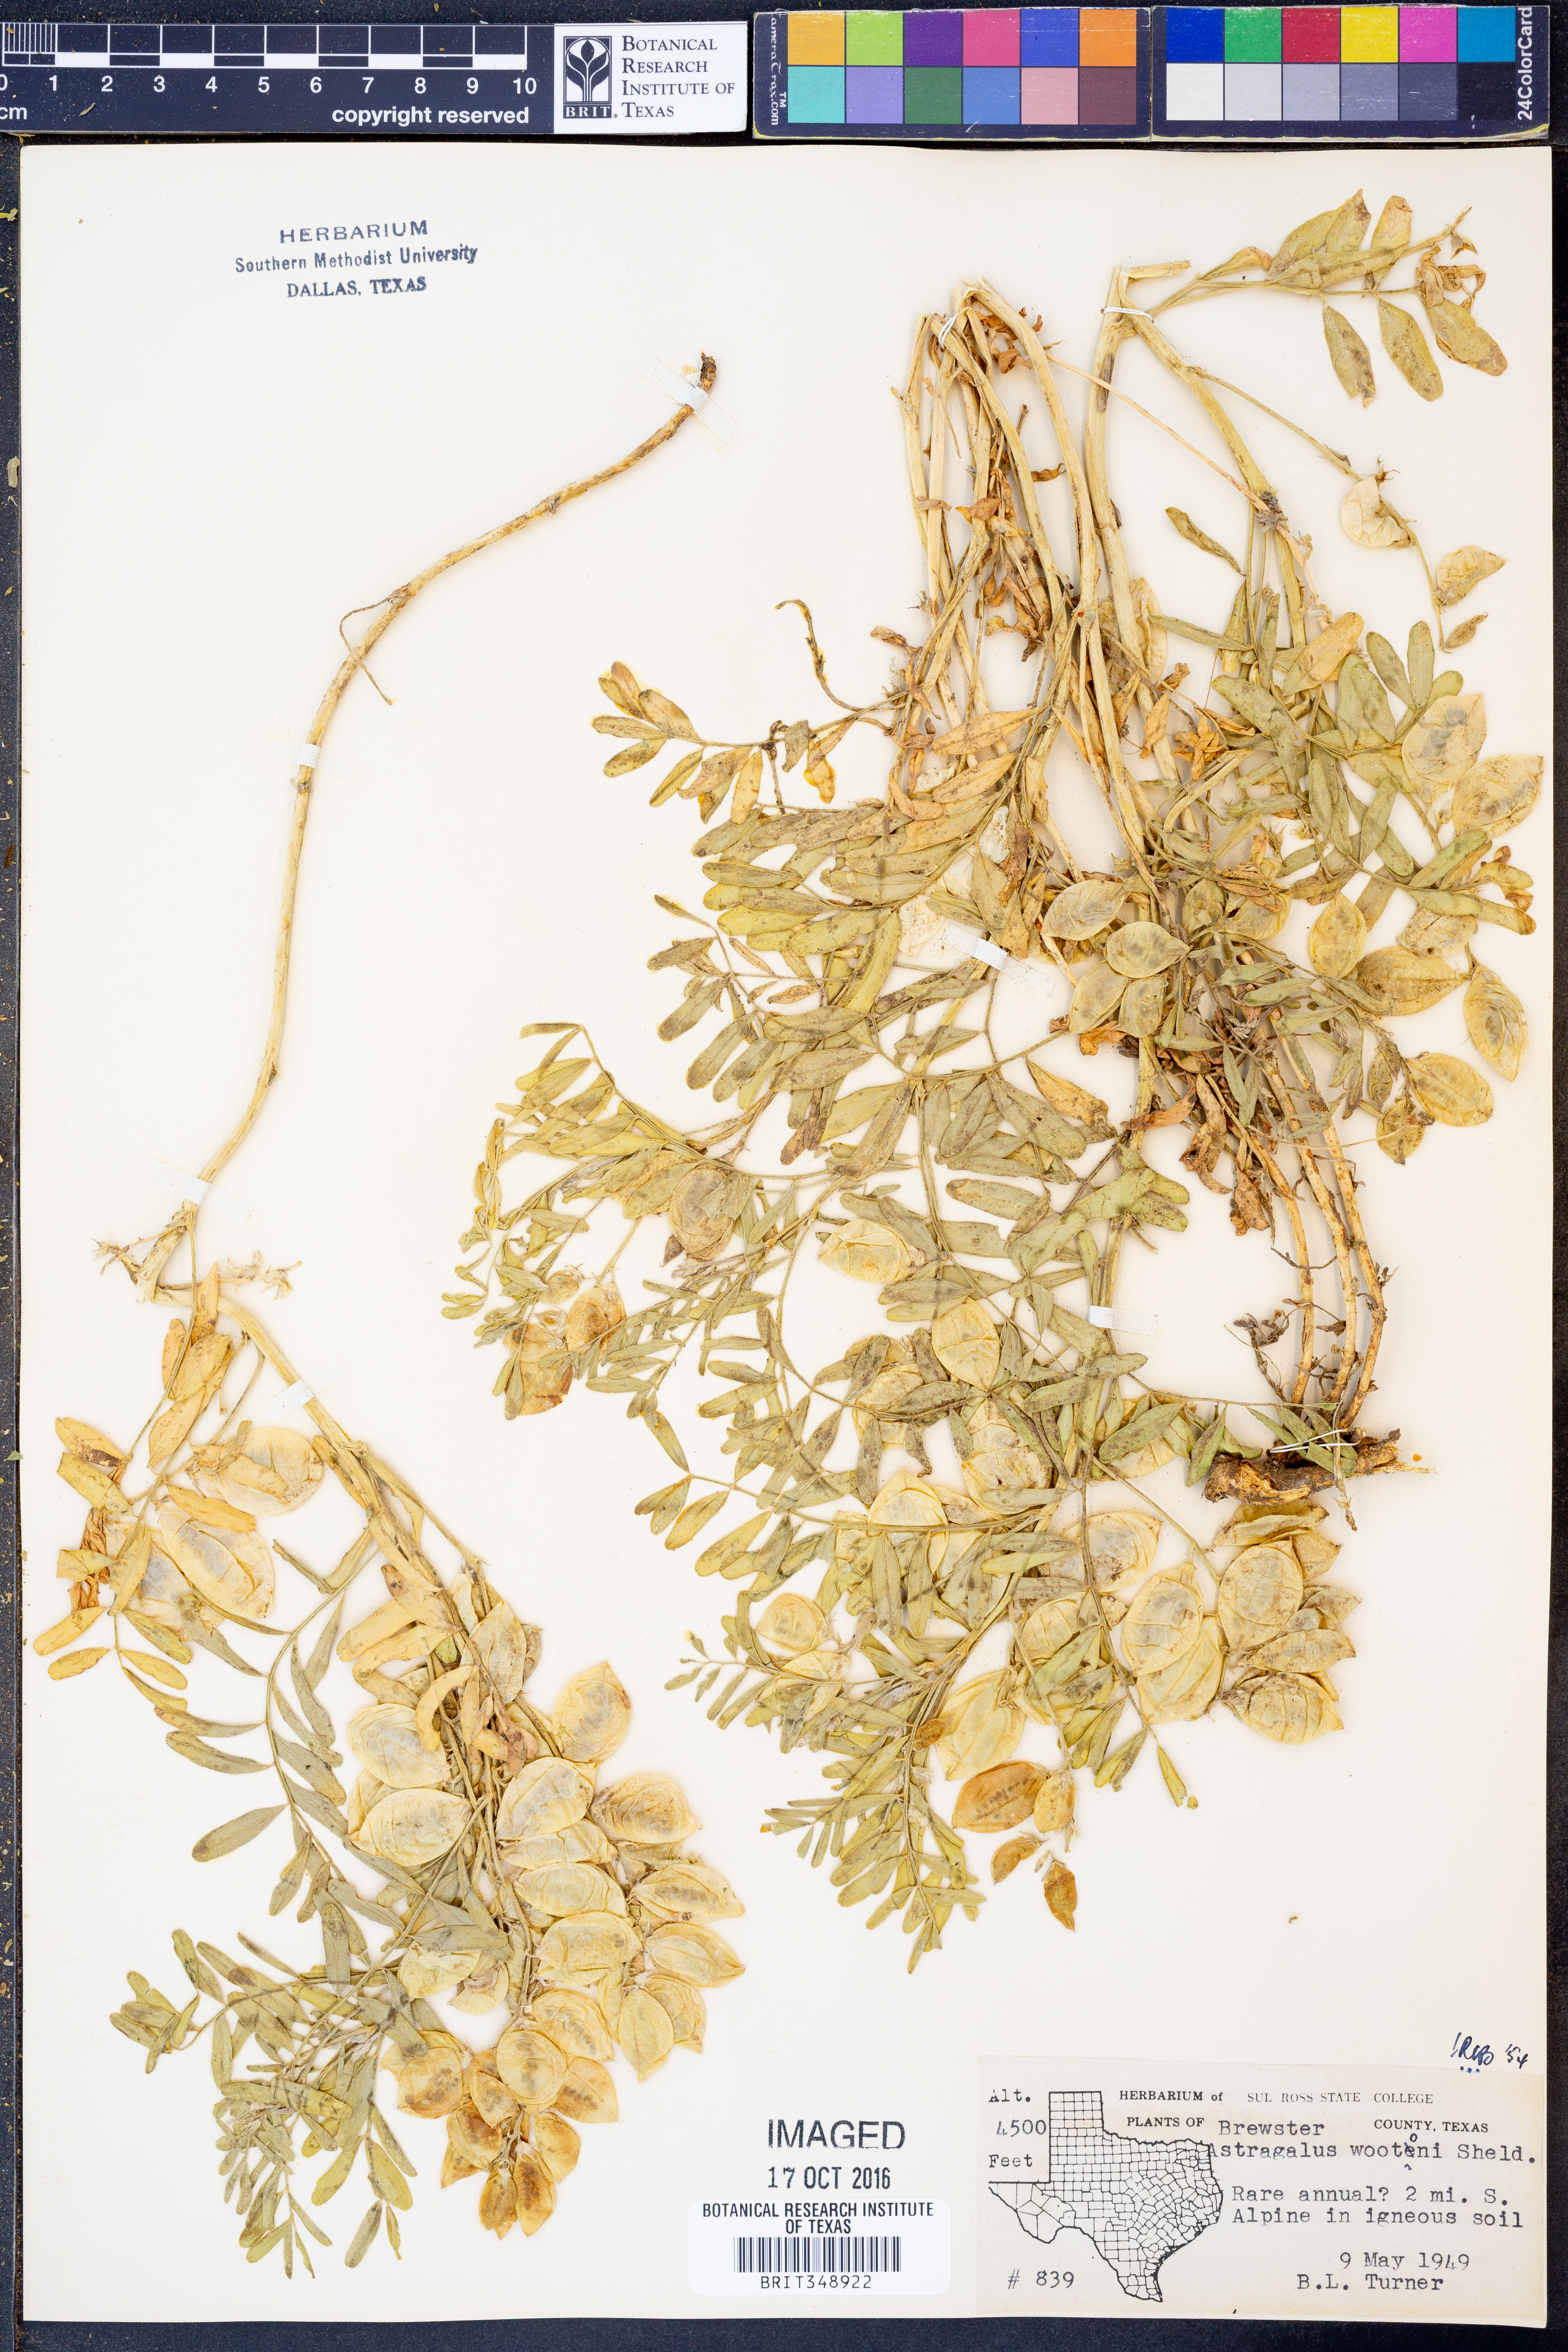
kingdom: Plantae
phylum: Tracheophyta
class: Magnoliopsida
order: Fabales
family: Fabaceae
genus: Astragalus
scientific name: Astragalus wootonii
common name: Wooton's milk-vetch
